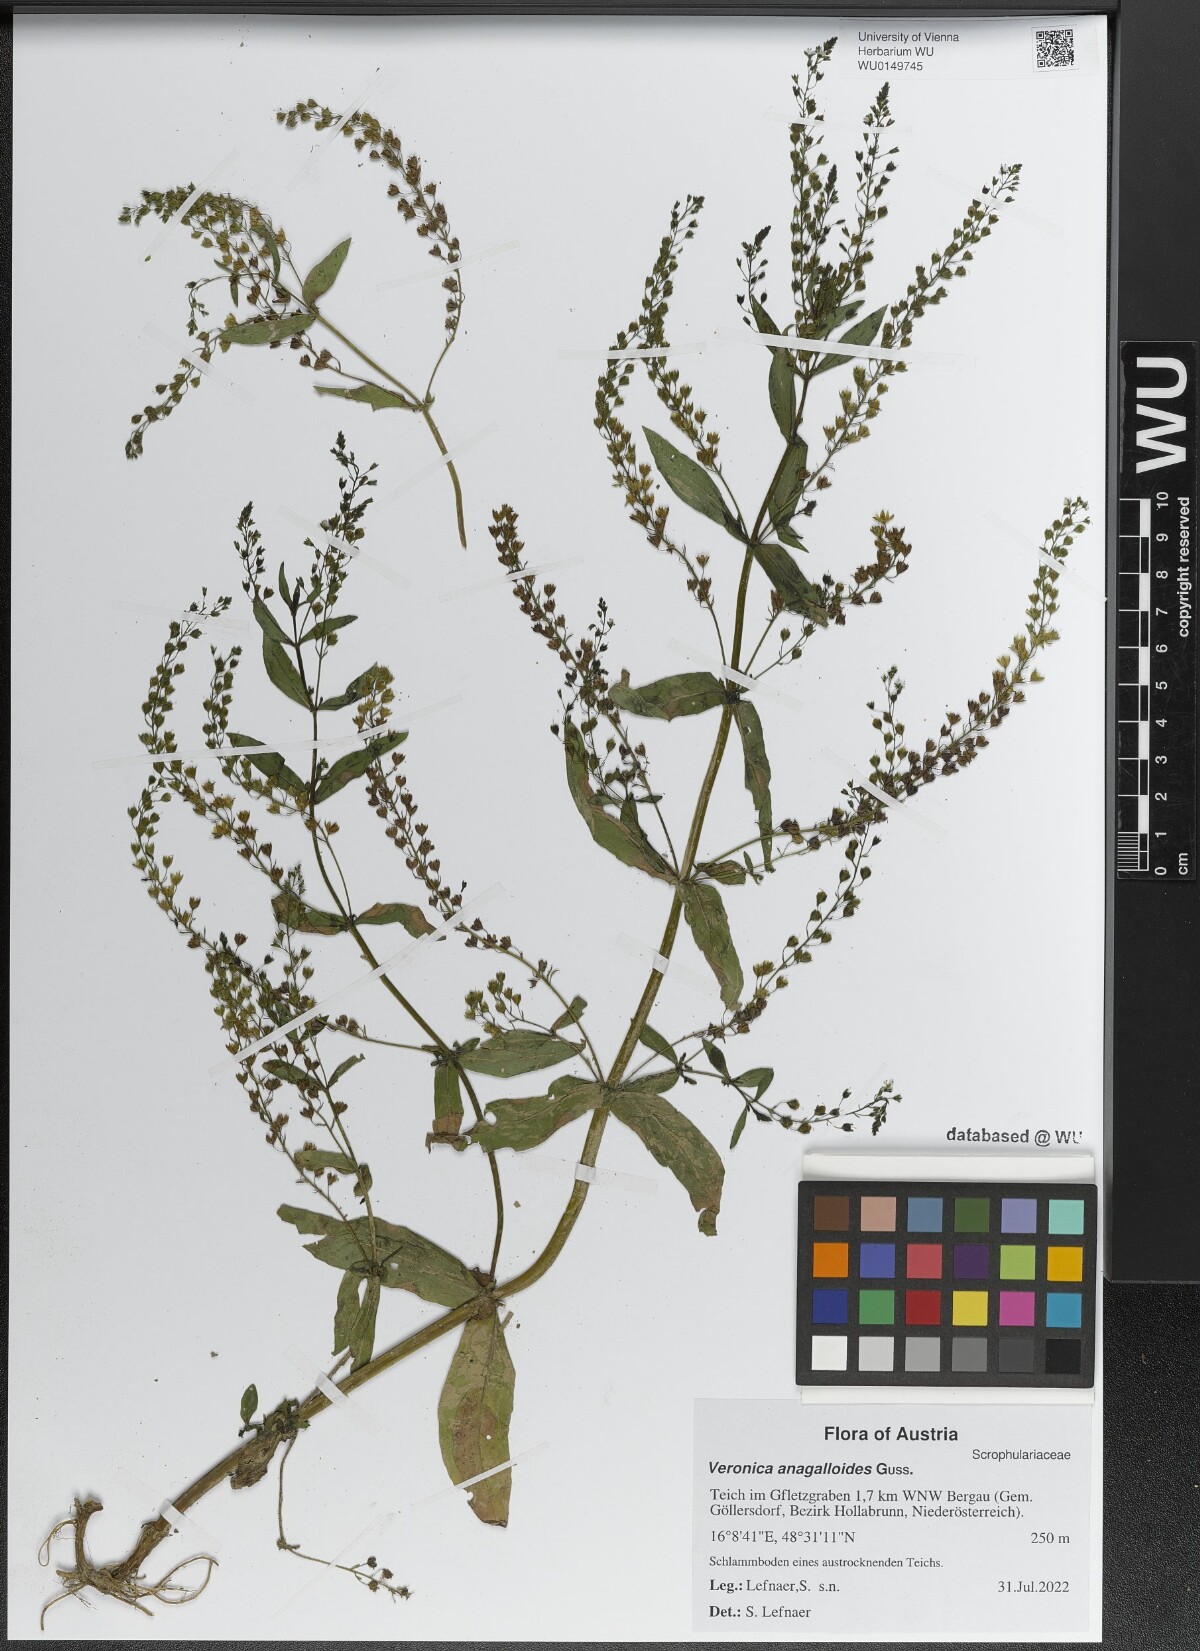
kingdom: Plantae
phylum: Tracheophyta
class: Magnoliopsida
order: Lamiales
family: Plantaginaceae
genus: Veronica
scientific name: Veronica anagalloides
